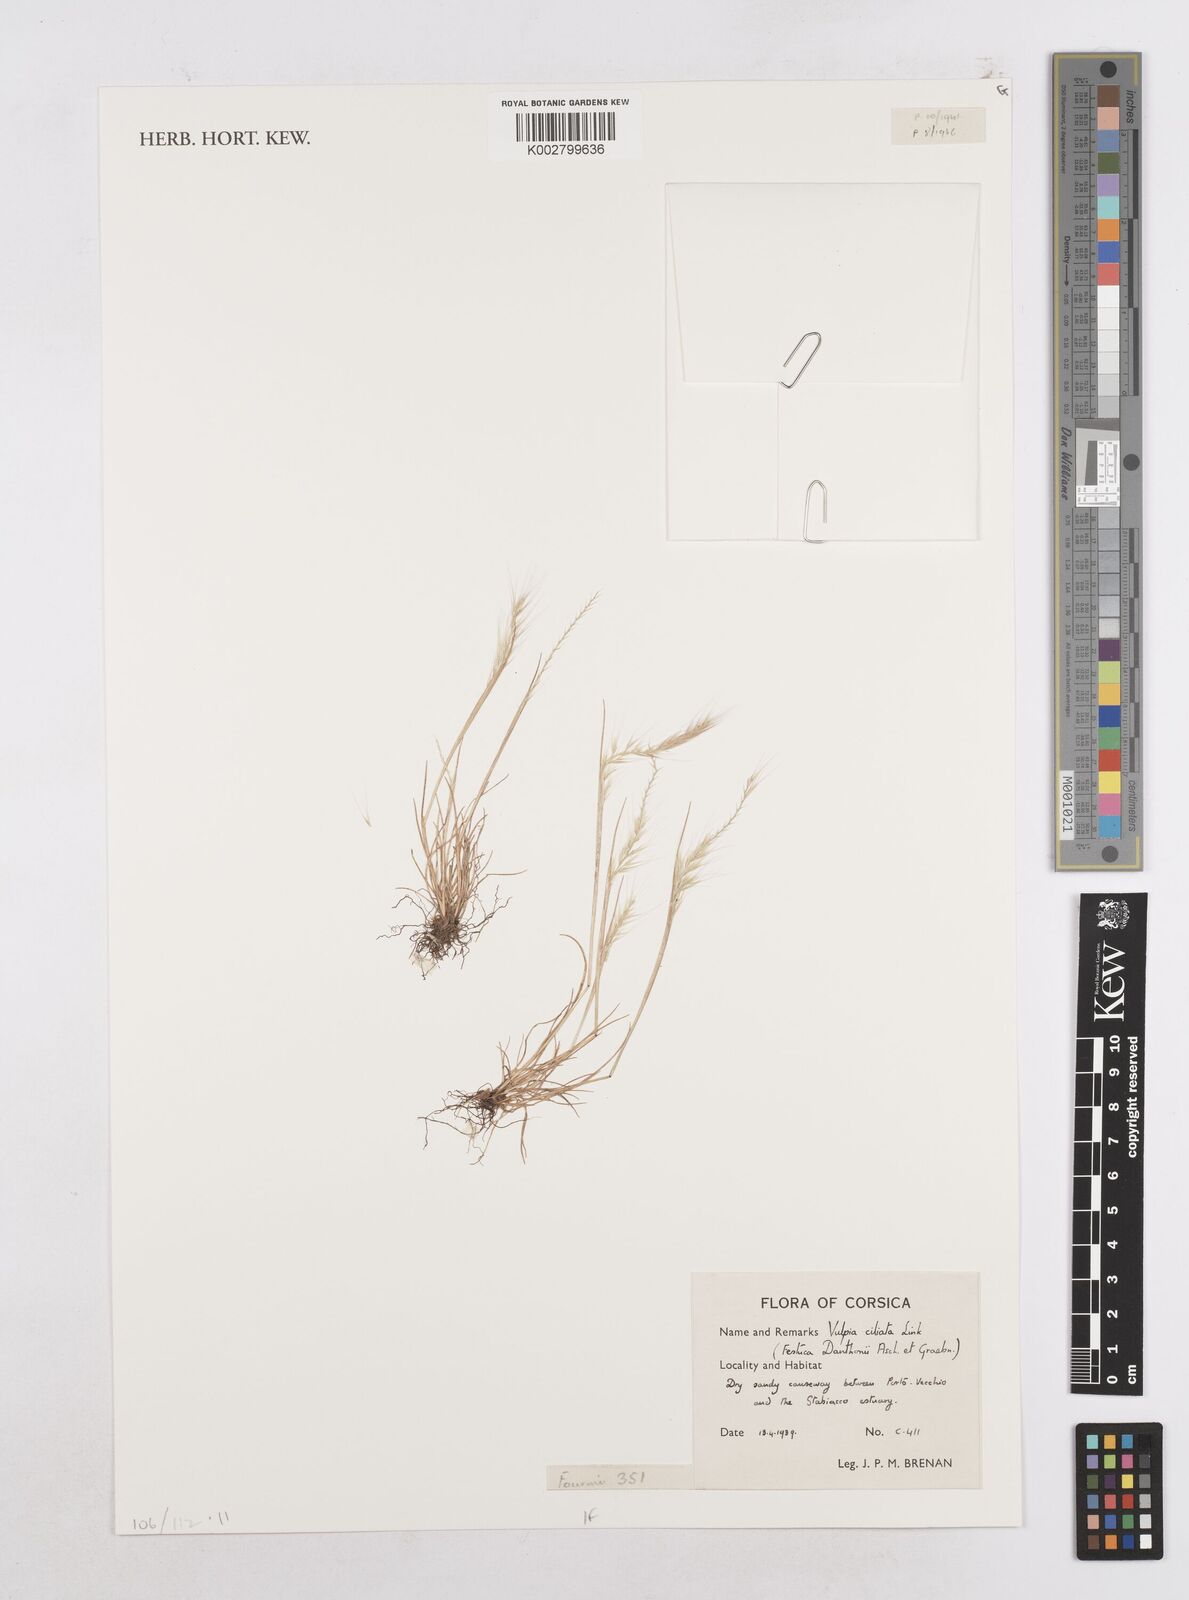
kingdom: Plantae
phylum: Tracheophyta
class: Liliopsida
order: Poales
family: Poaceae
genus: Festuca
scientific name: Festuca
